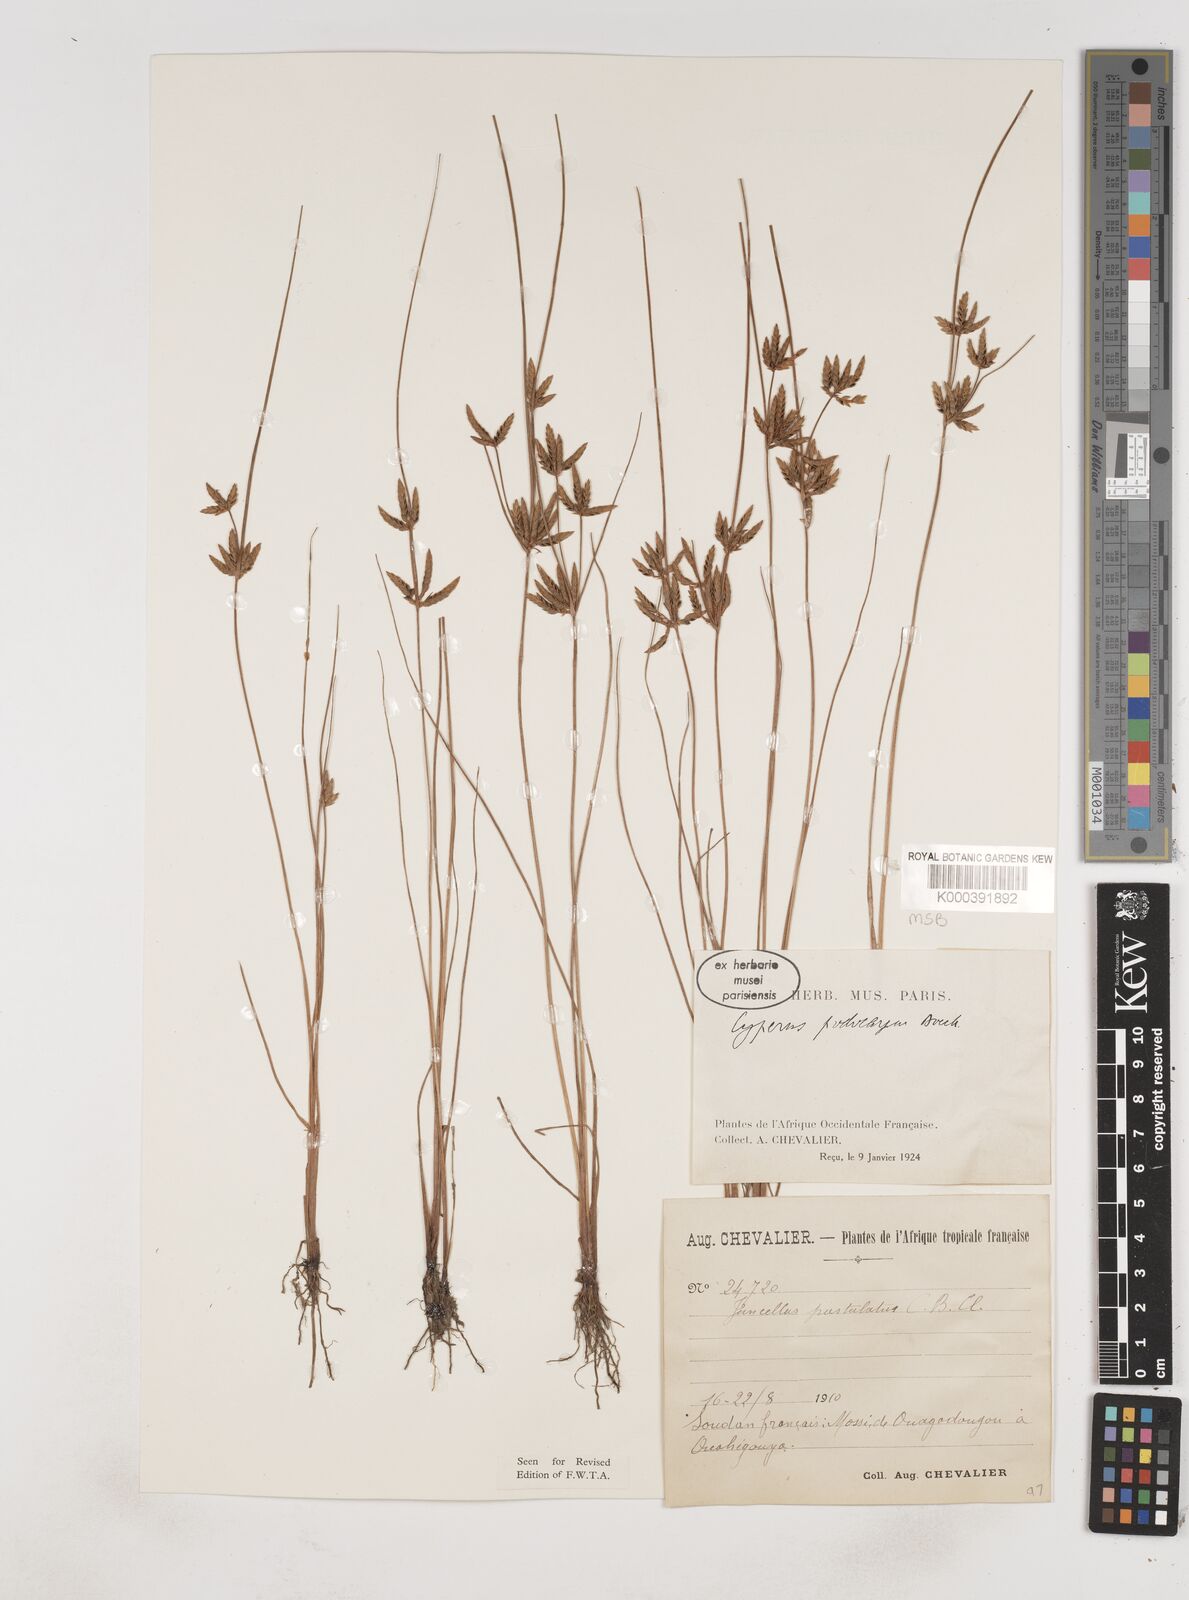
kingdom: Plantae
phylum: Tracheophyta
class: Liliopsida
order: Poales
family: Cyperaceae
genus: Cyperus
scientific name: Cyperus podocarpus
